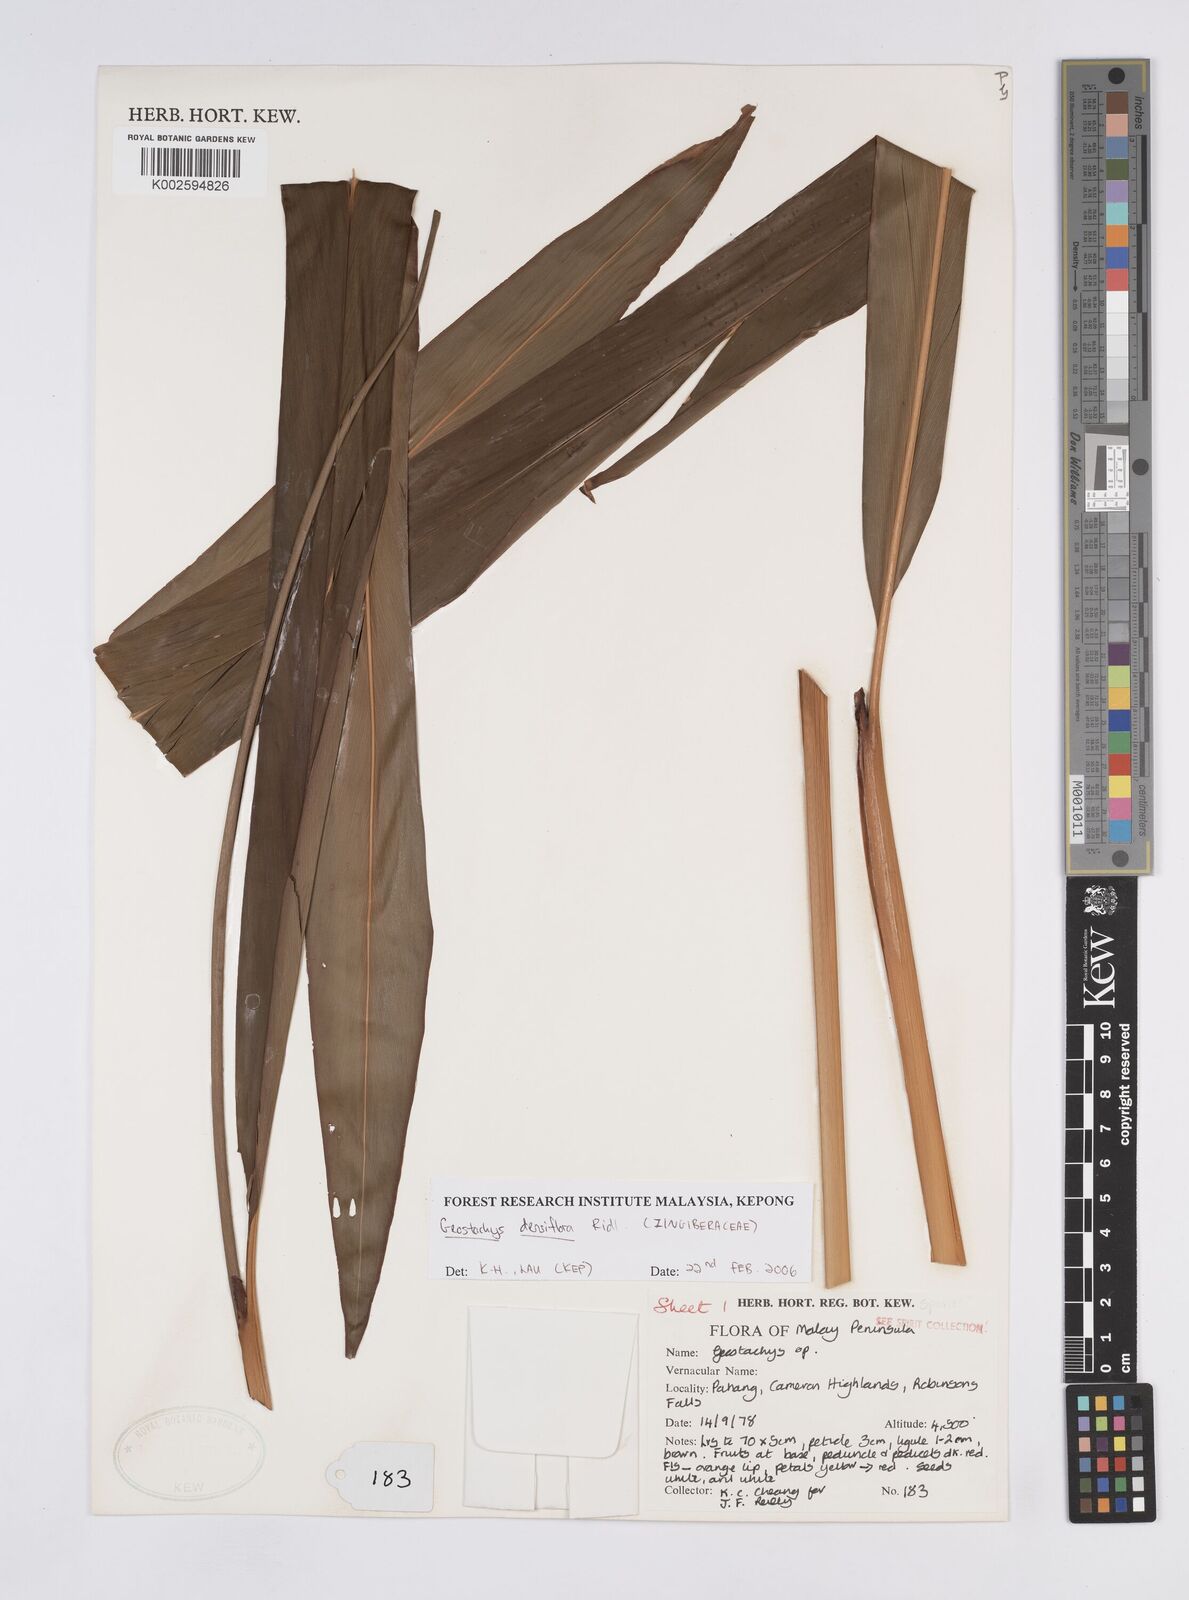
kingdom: Plantae
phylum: Tracheophyta
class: Liliopsida
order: Zingiberales
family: Zingiberaceae
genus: Geostachys
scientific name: Geostachys densiflora
